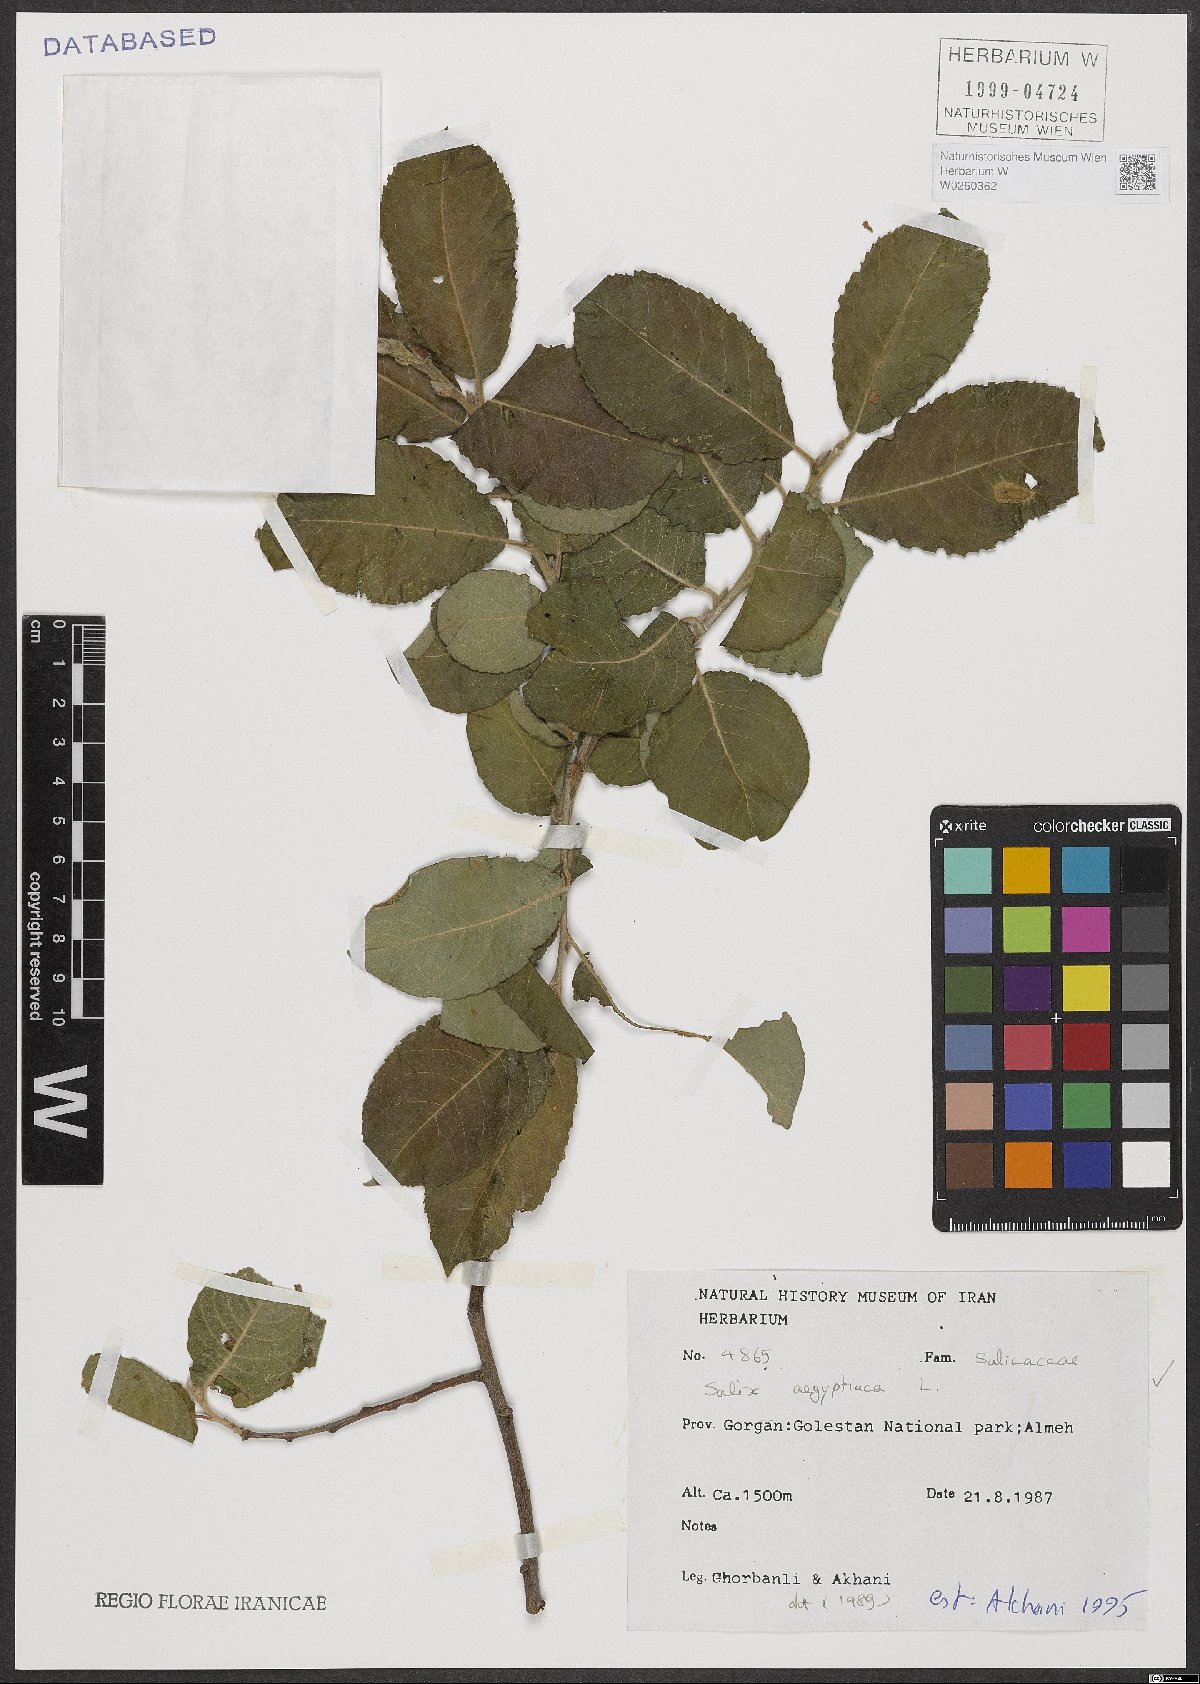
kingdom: Plantae
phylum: Tracheophyta
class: Magnoliopsida
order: Malpighiales
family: Salicaceae
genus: Salix
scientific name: Salix aegyptiaca
